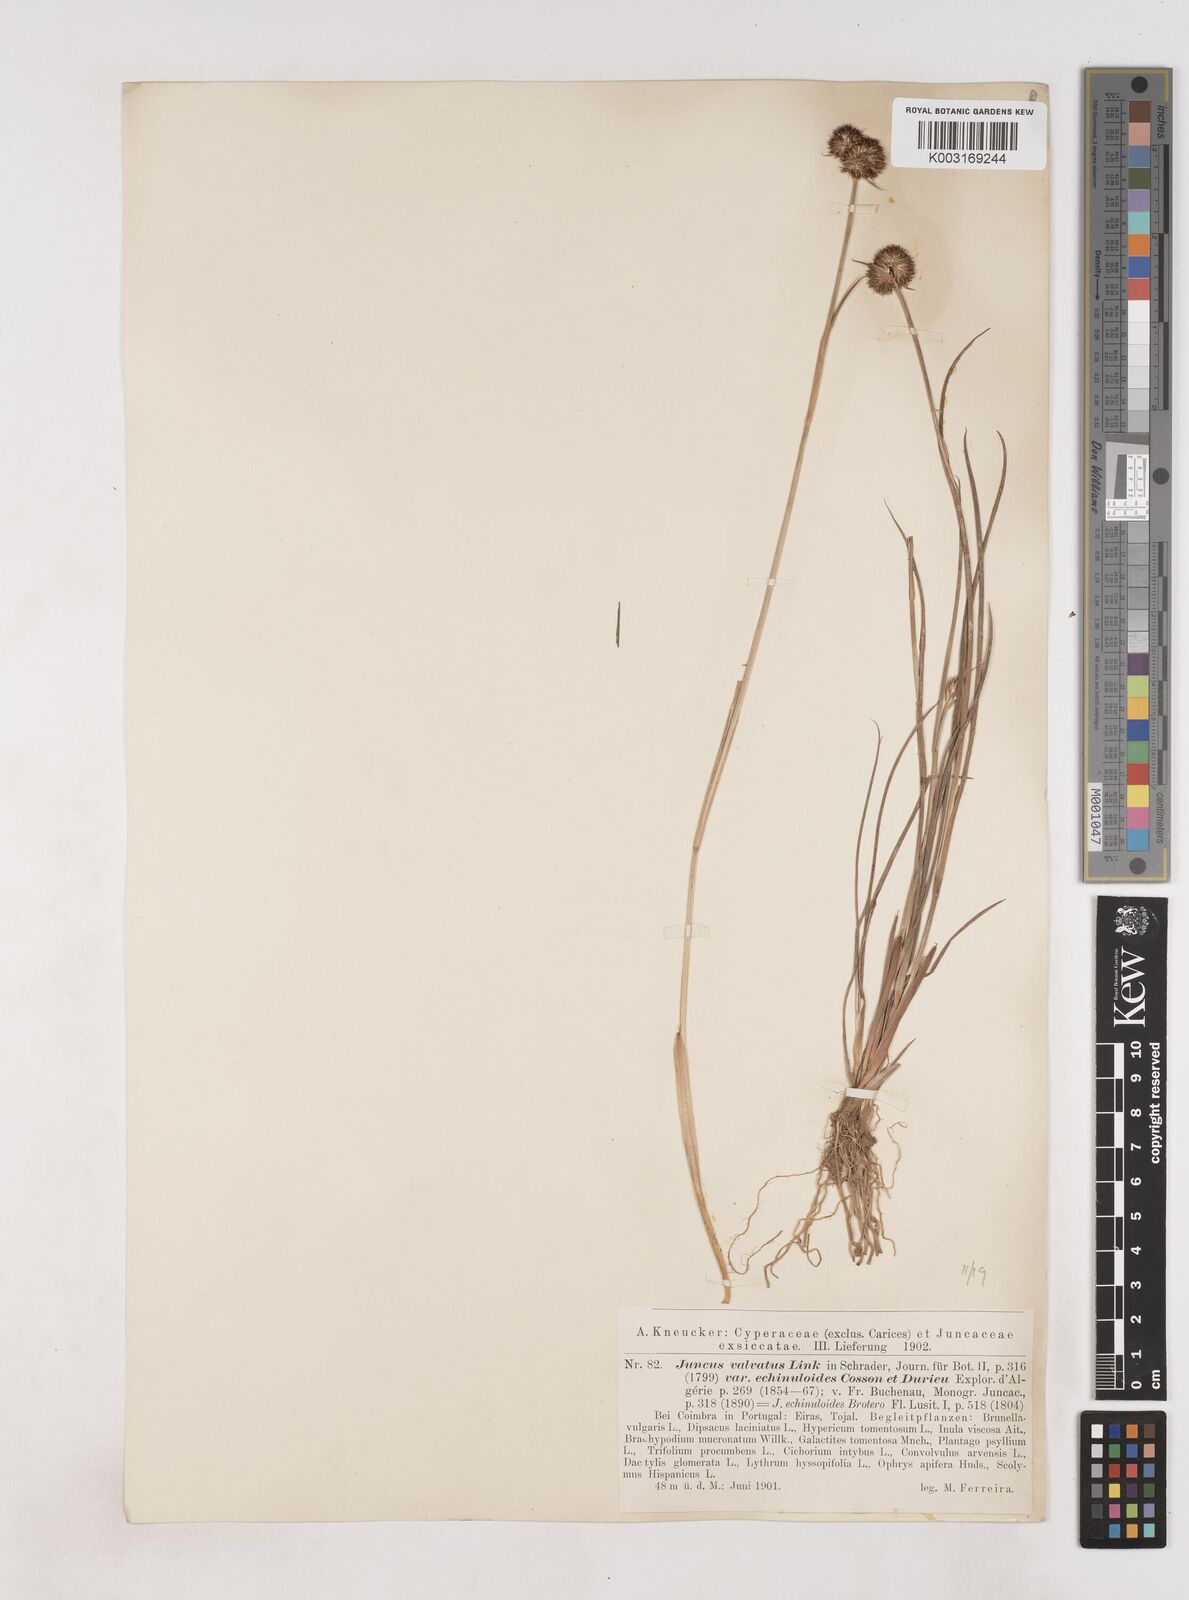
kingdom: Plantae
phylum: Tracheophyta
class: Liliopsida
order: Poales
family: Juncaceae
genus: Juncus
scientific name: Juncus valvatus
